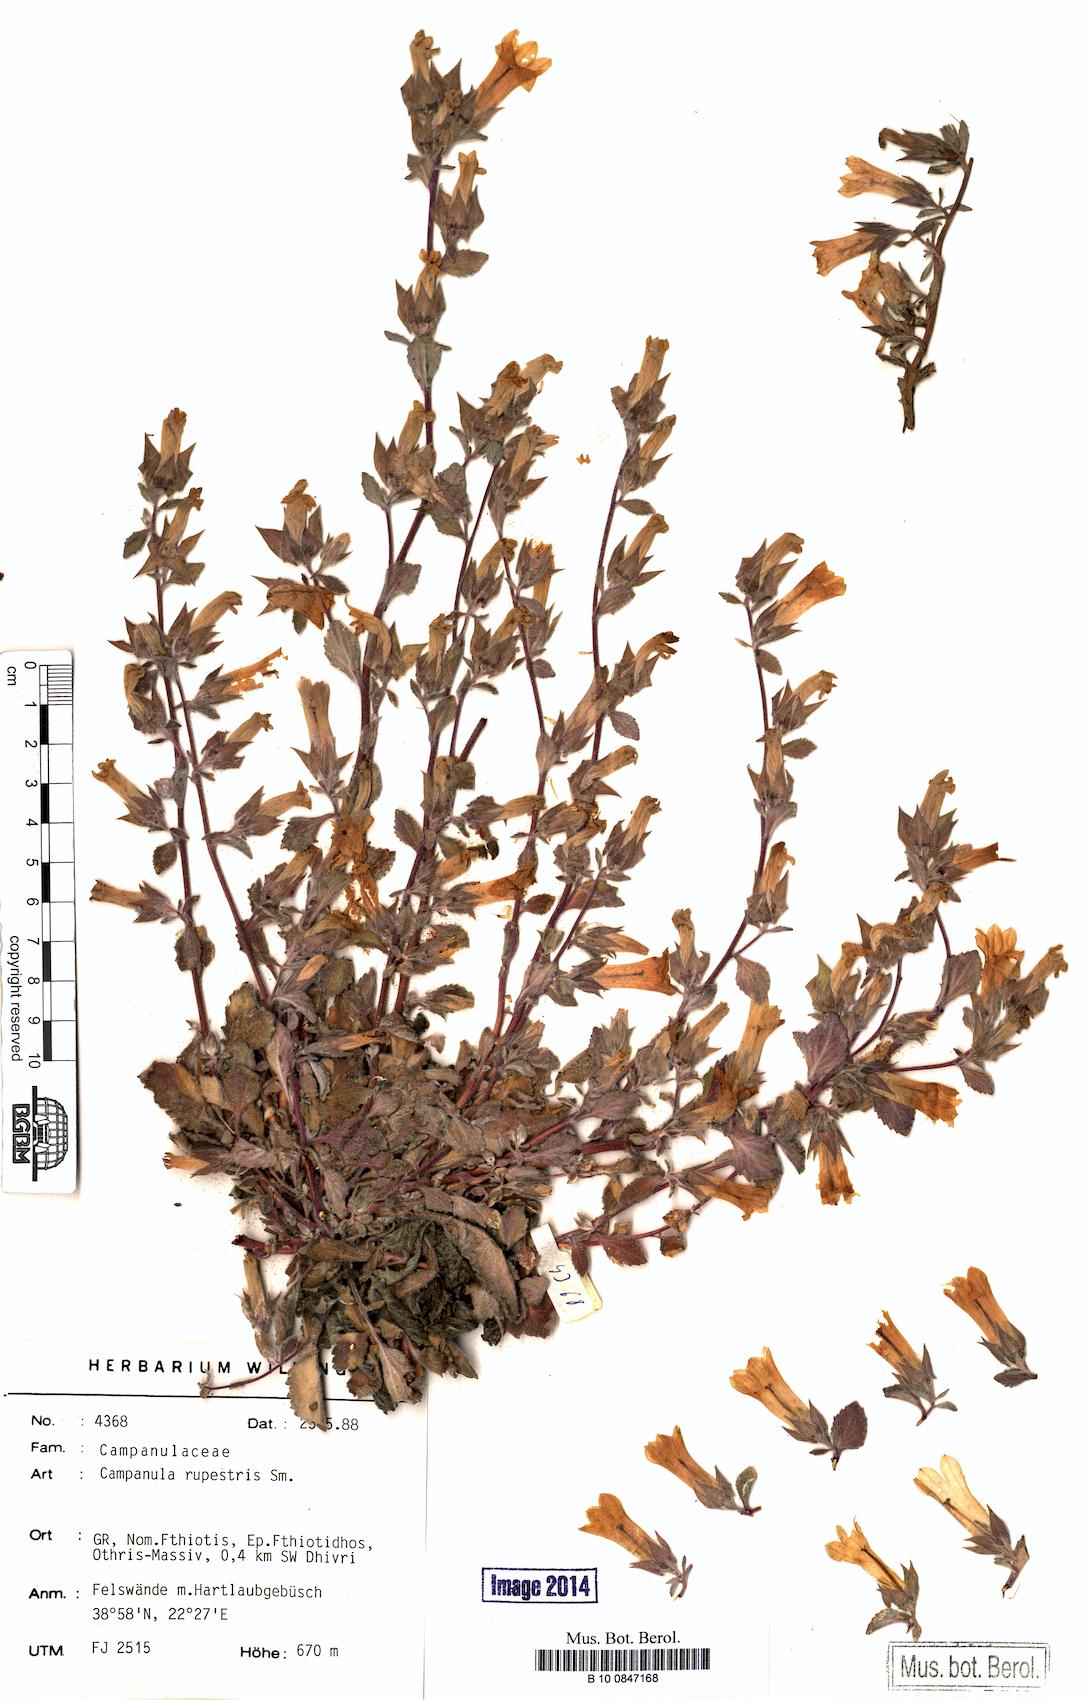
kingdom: Plantae
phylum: Tracheophyta
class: Magnoliopsida
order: Asterales
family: Campanulaceae
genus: Campanula
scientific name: Campanula rupestris
